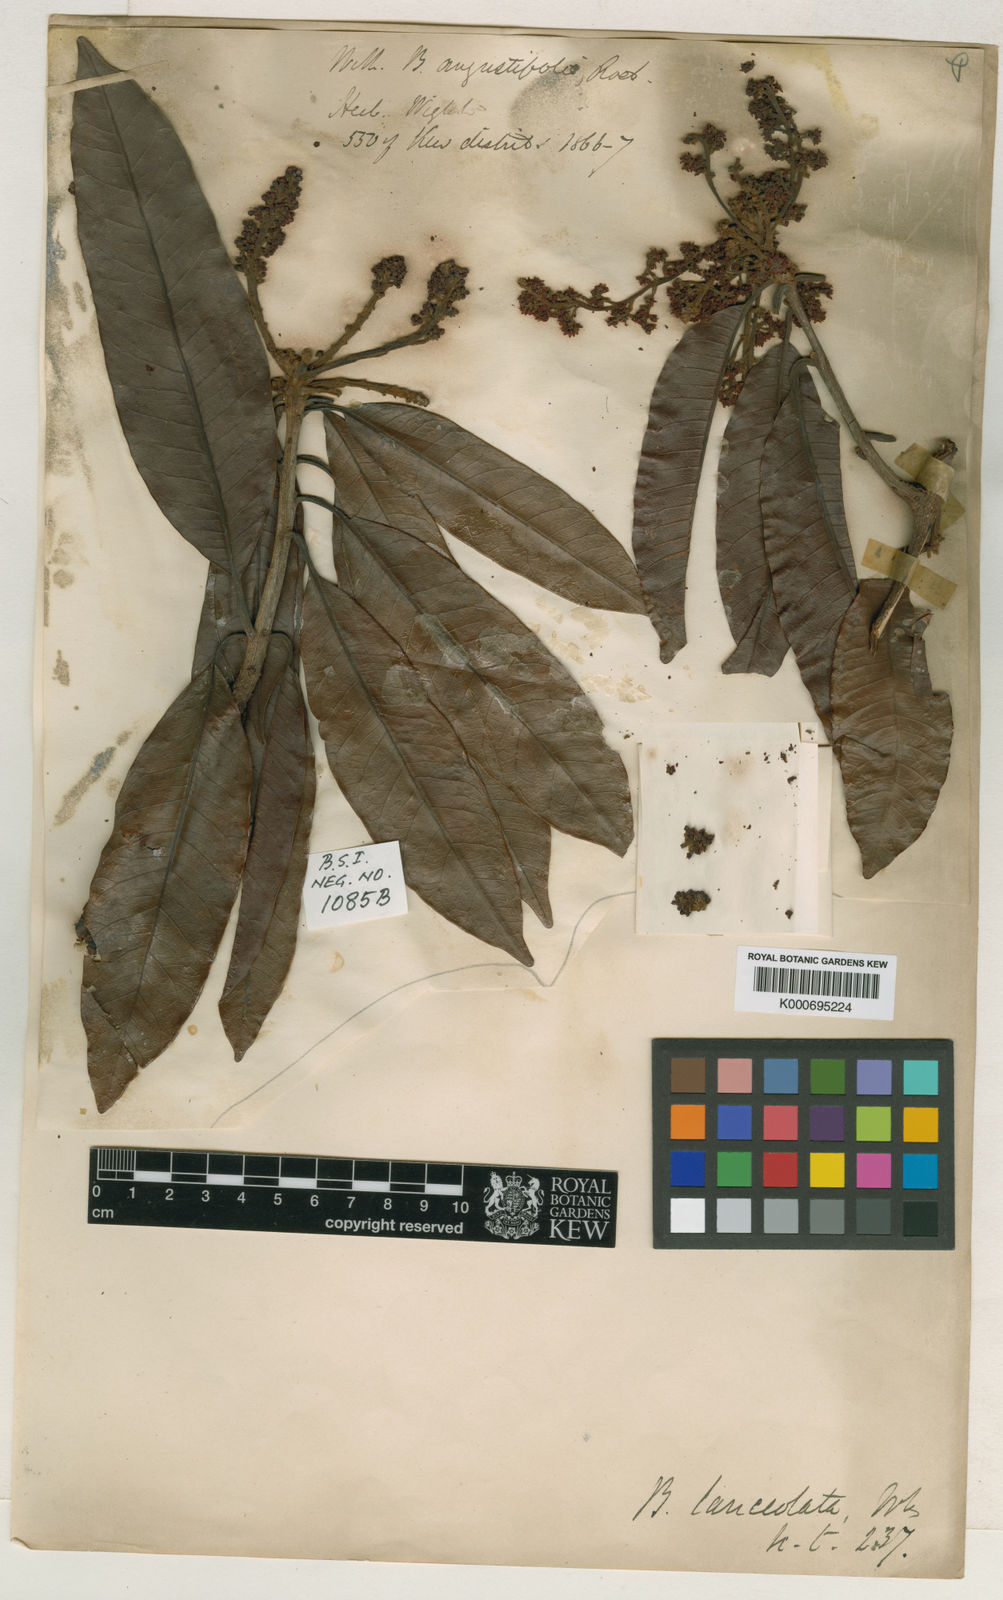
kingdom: Plantae
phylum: Tracheophyta
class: Magnoliopsida
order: Sapindales
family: Anacardiaceae
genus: Buchanania
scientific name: Buchanania lanceolata
